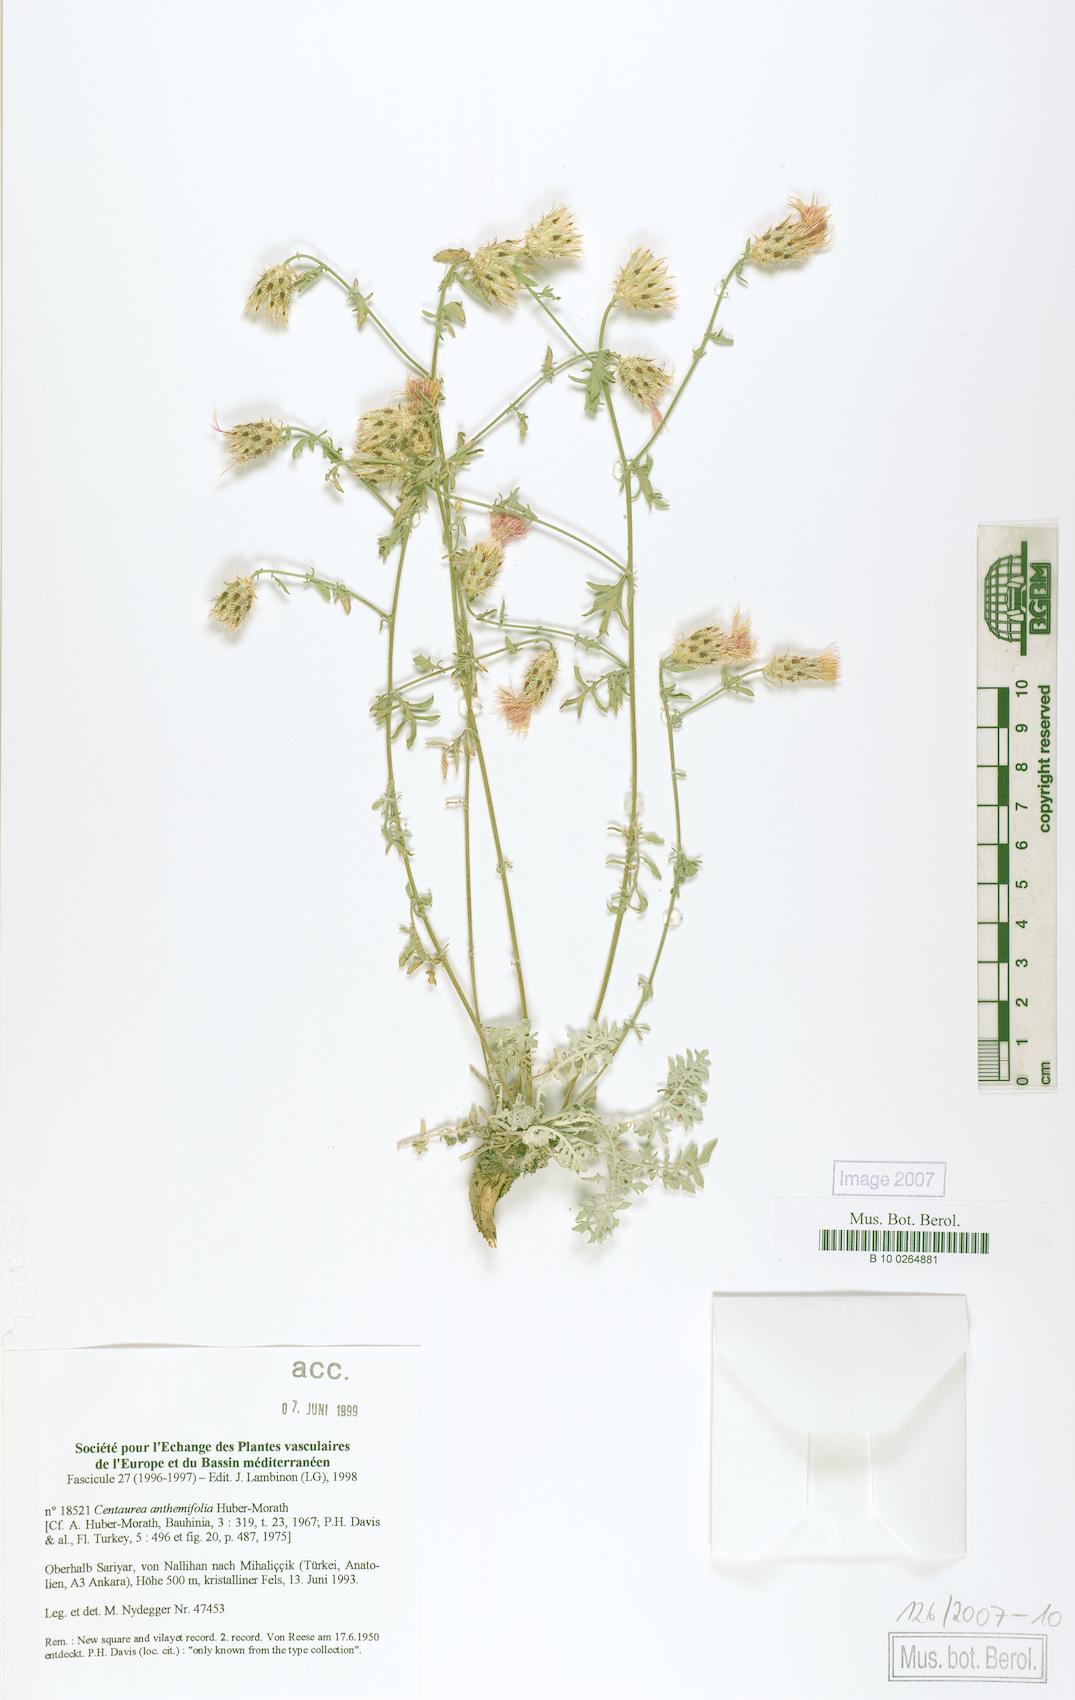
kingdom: Plantae
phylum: Tracheophyta
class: Magnoliopsida
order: Asterales
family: Asteraceae
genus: Centaurea
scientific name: Centaurea anthemifolia
